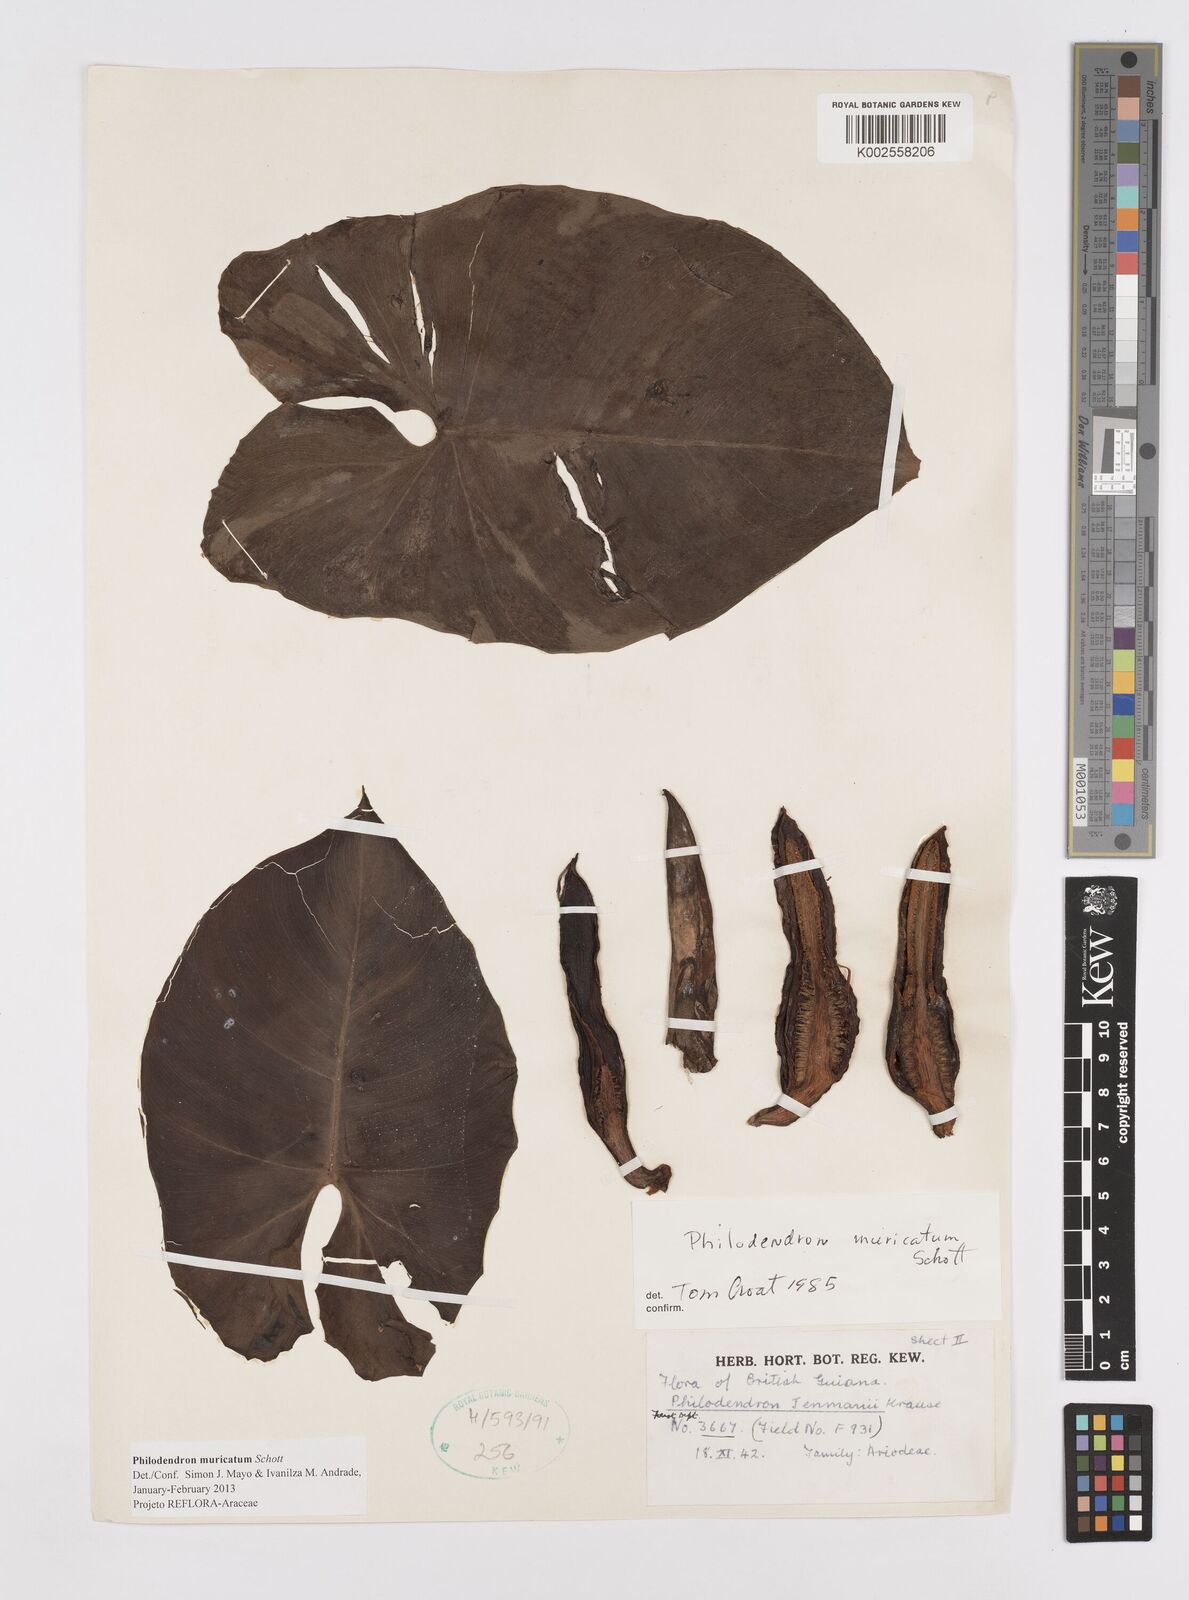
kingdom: Plantae
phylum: Tracheophyta
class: Liliopsida
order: Alismatales
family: Araceae
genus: Philodendron
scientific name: Philodendron muricatum
